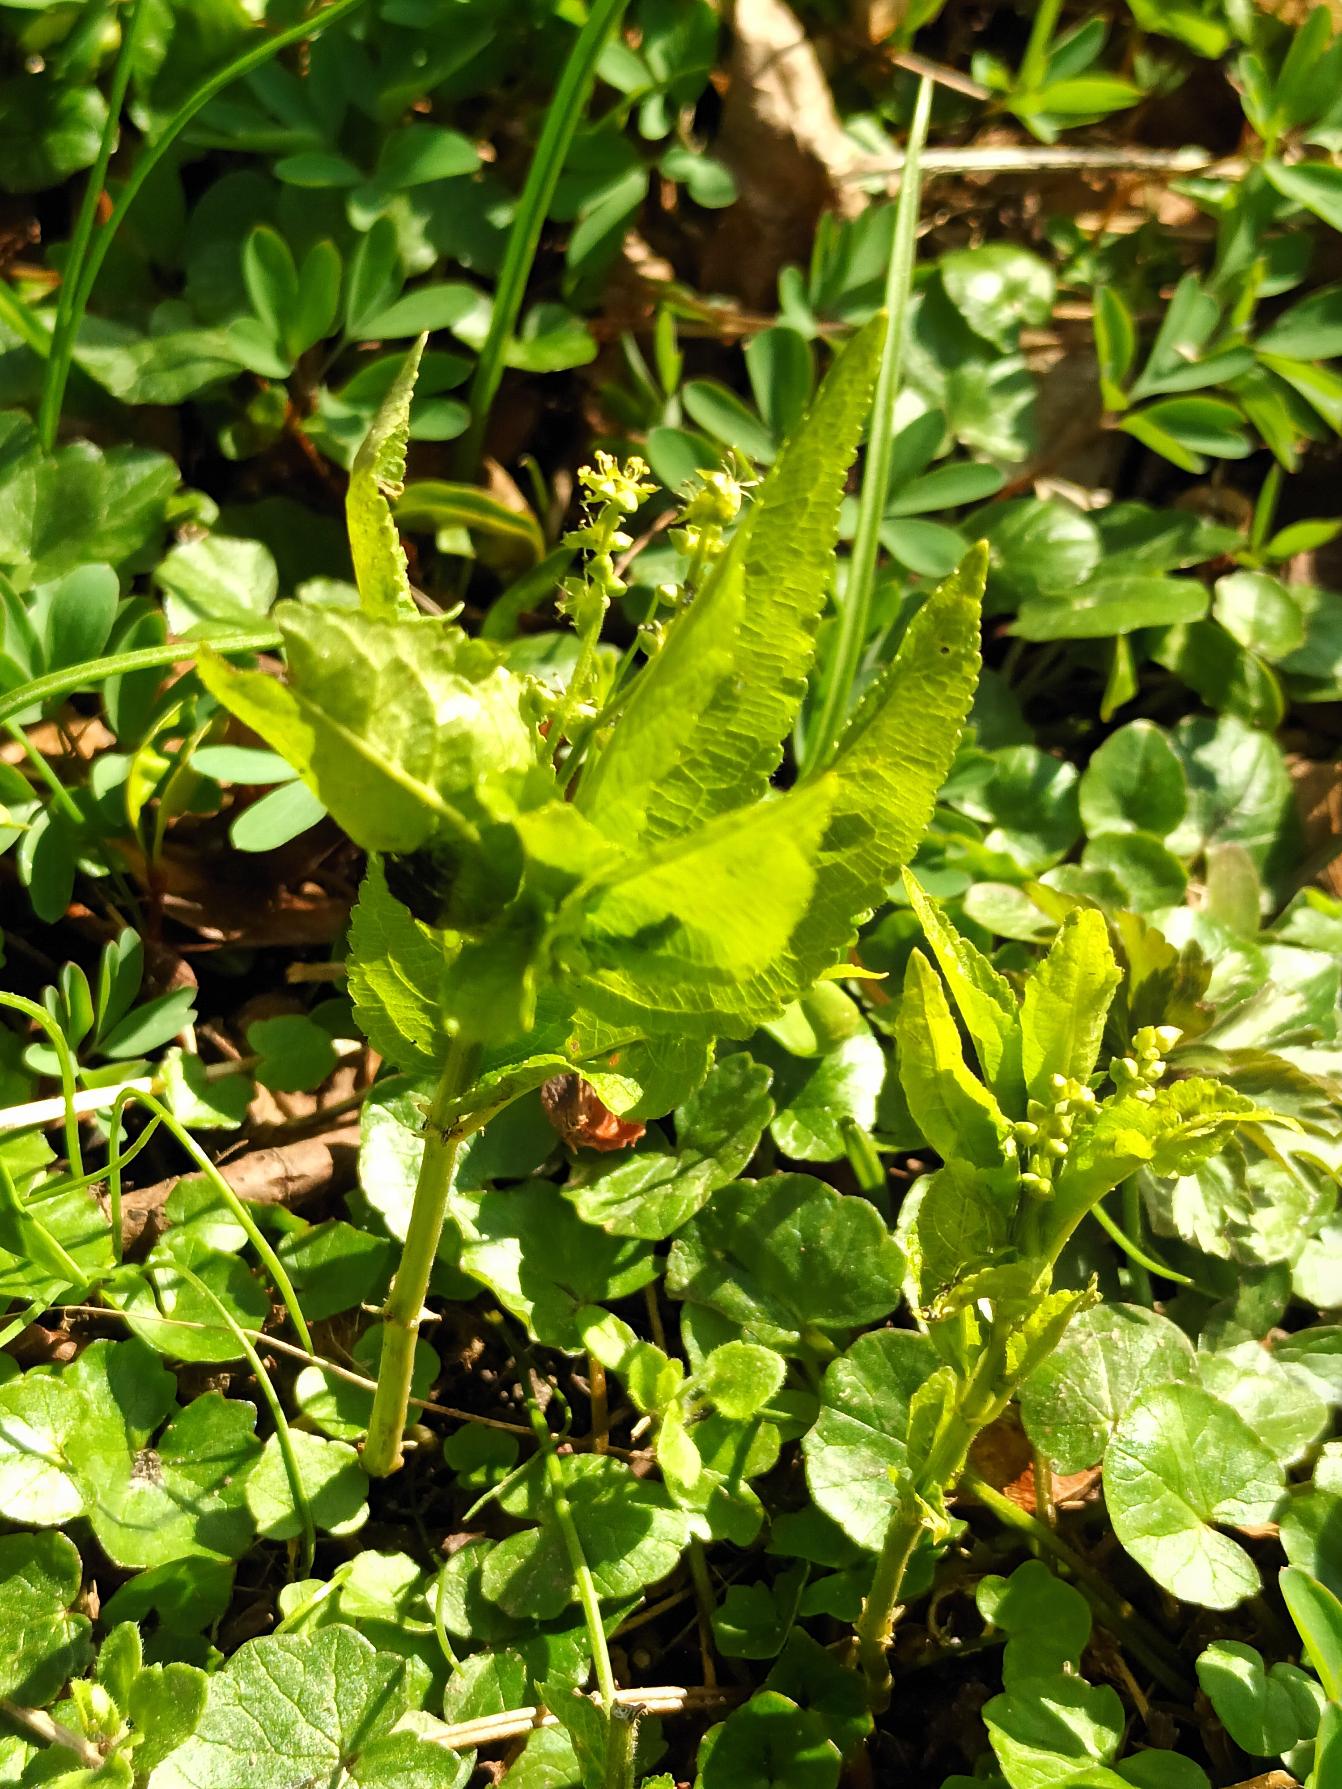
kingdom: Plantae
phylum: Tracheophyta
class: Magnoliopsida
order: Malpighiales
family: Euphorbiaceae
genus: Mercurialis
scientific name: Mercurialis perennis
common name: Almindelig bingelurt
